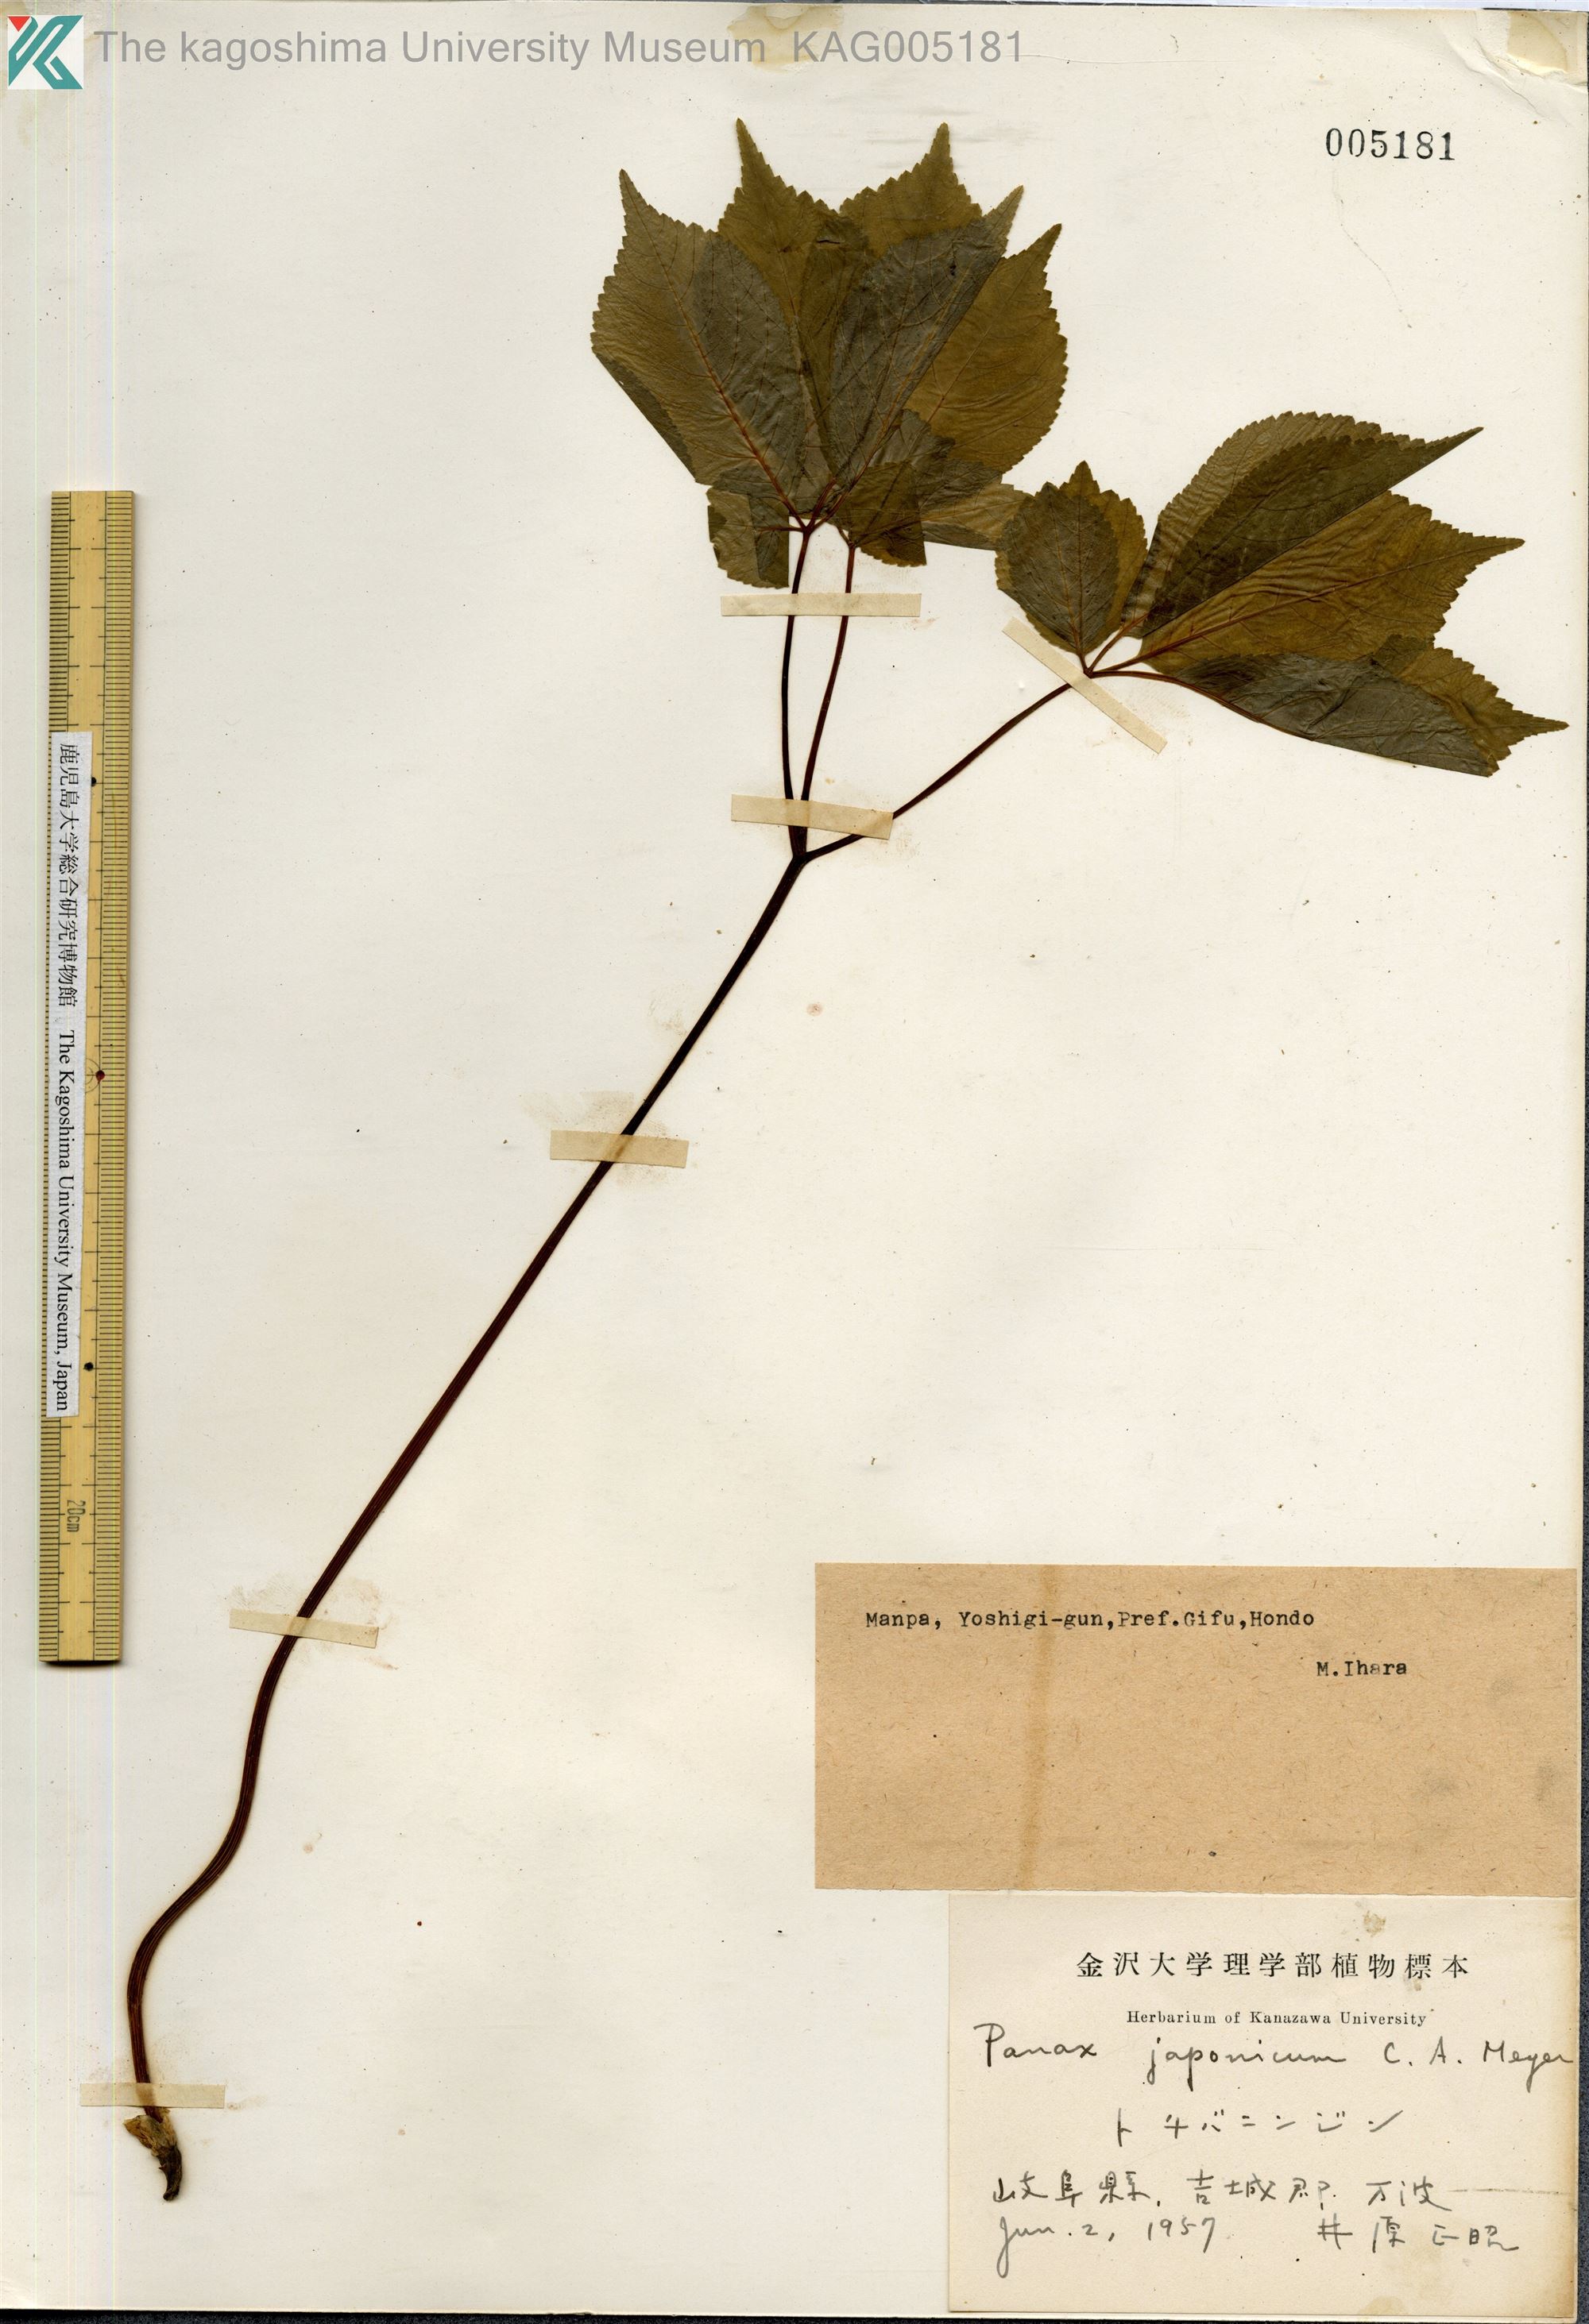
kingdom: Plantae
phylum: Tracheophyta
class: Magnoliopsida
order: Apiales
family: Araliaceae
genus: Panax
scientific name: Panax japonicus
